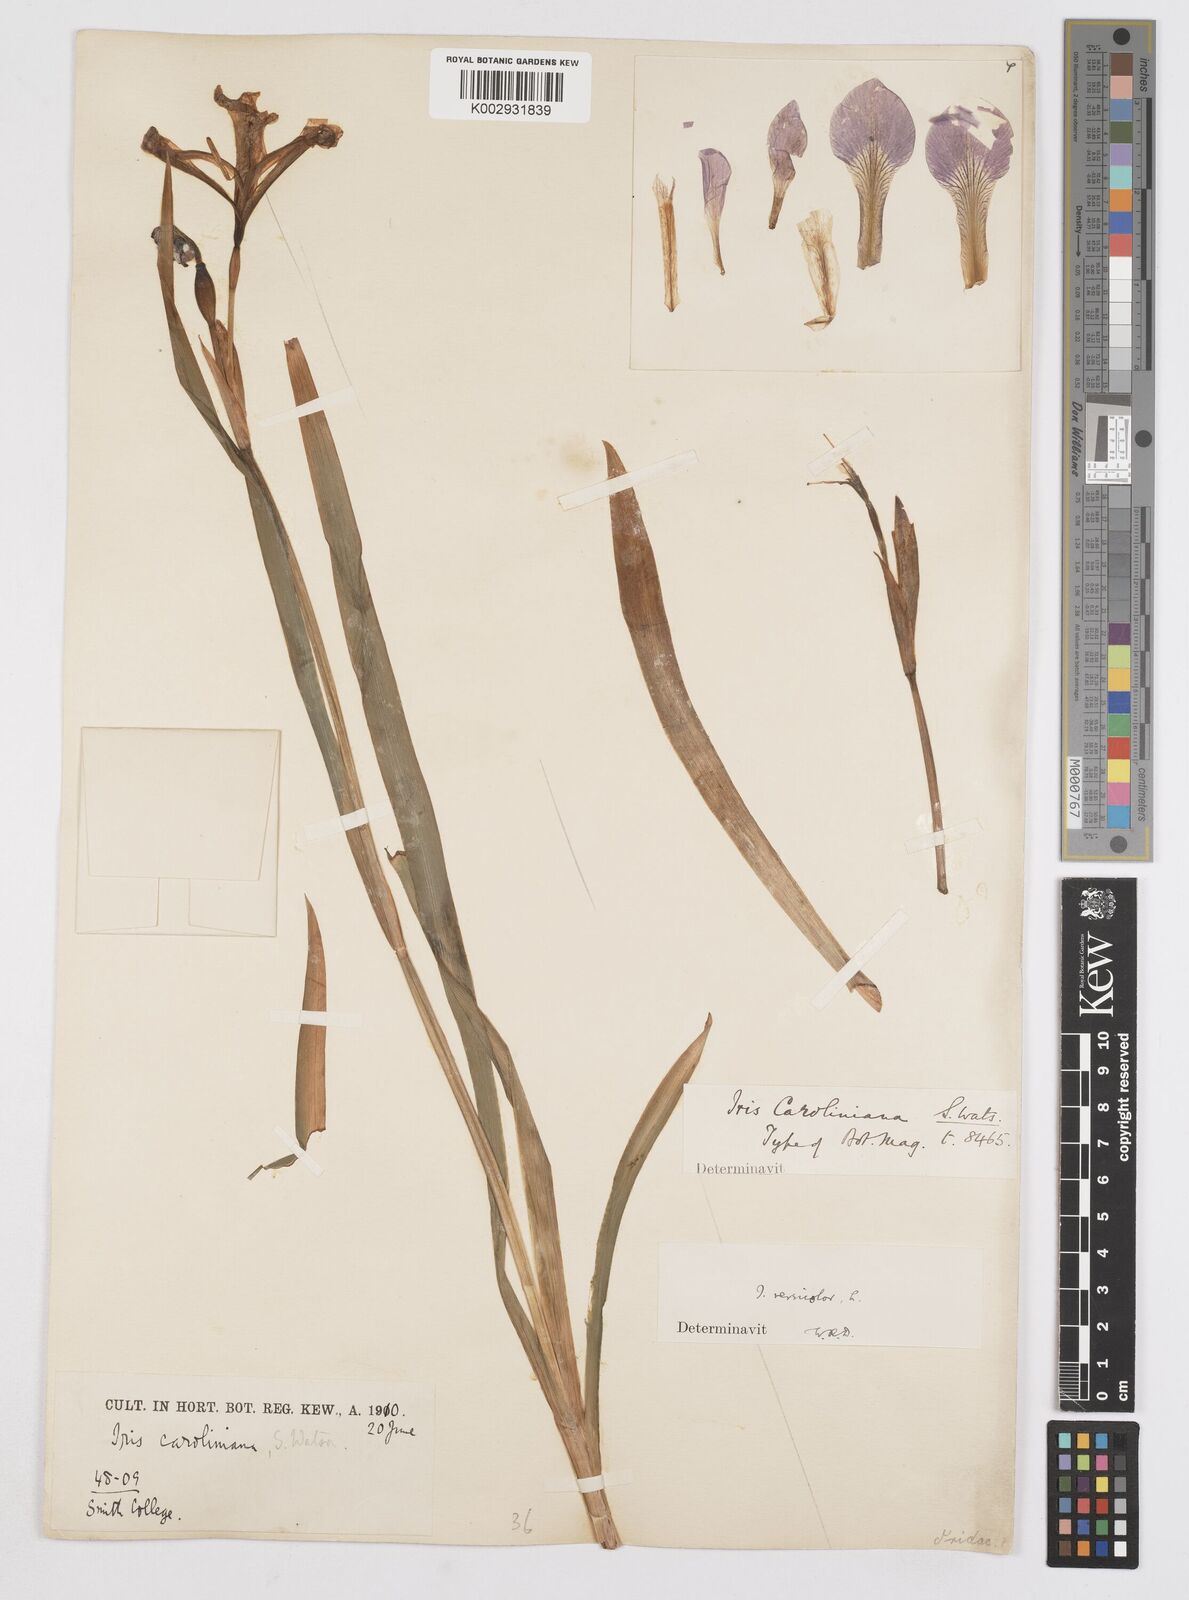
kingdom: Plantae
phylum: Tracheophyta
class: Liliopsida
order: Asparagales
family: Iridaceae
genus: Iris
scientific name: Iris virginica
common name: Southern blue flag
